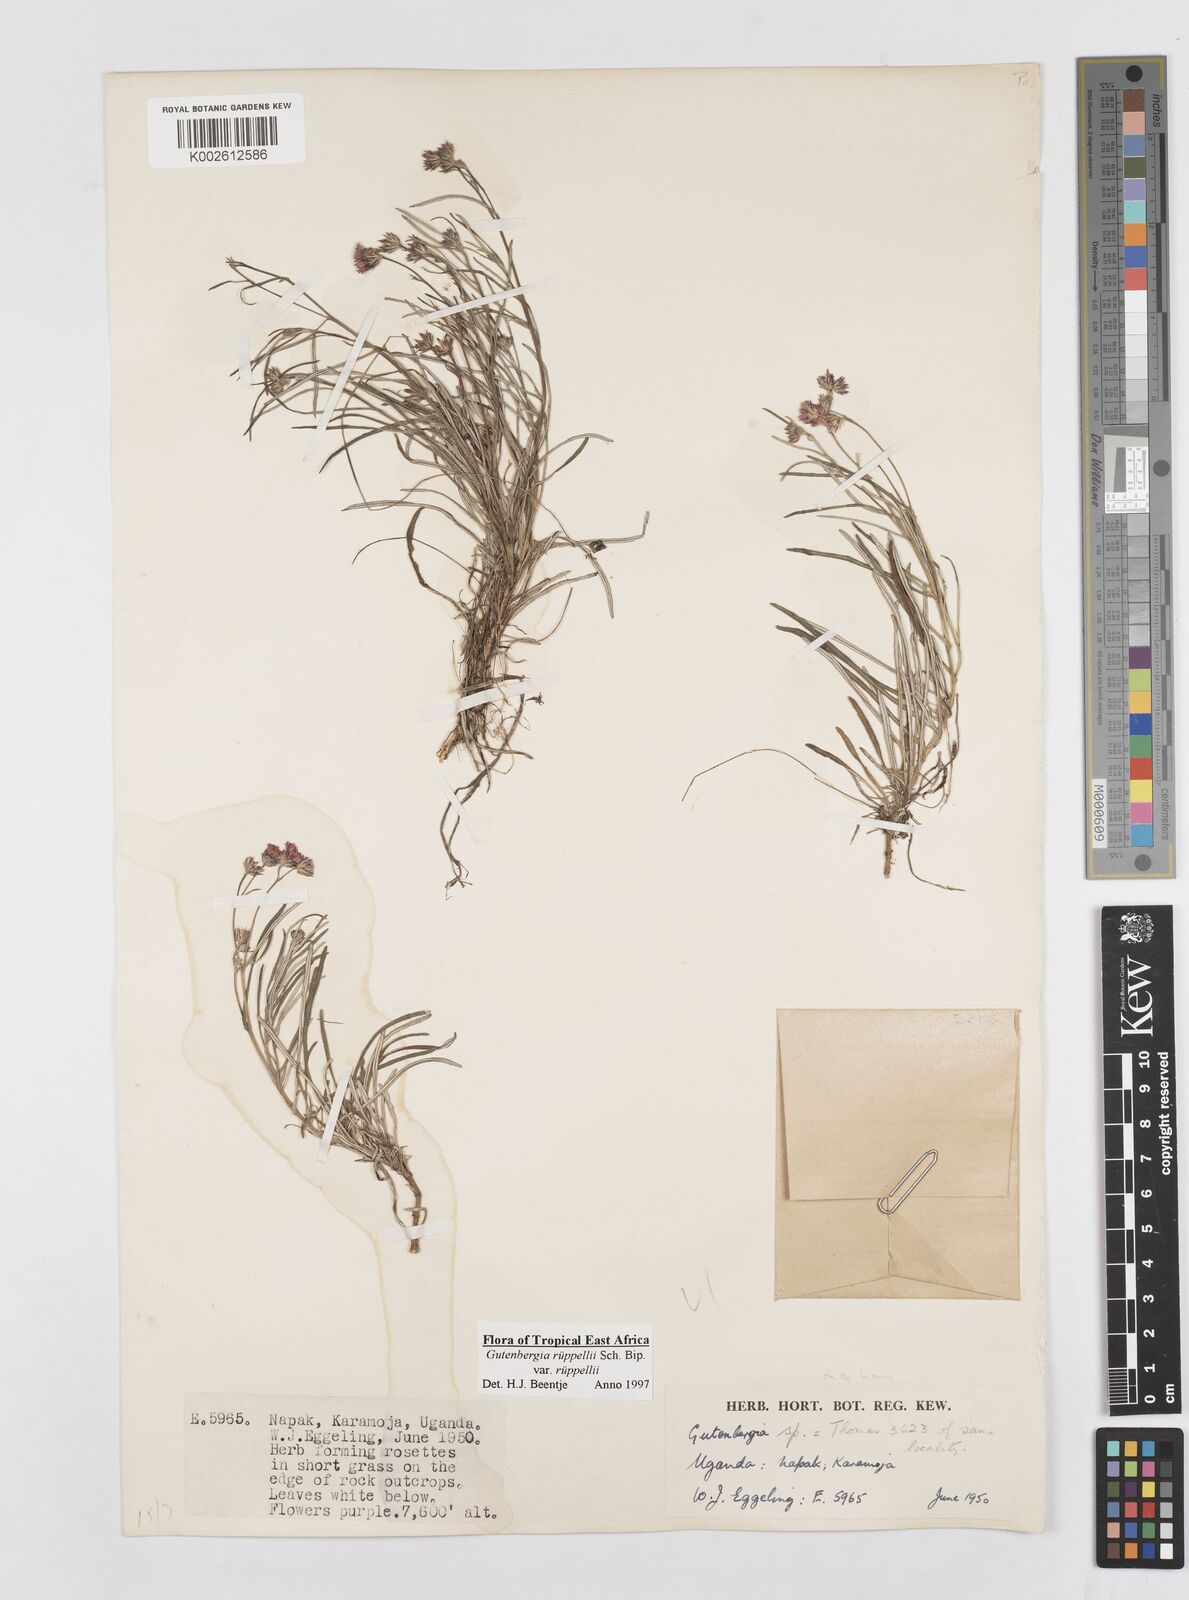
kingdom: Plantae
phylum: Tracheophyta
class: Magnoliopsida
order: Asterales
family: Asteraceae
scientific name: Asteraceae
